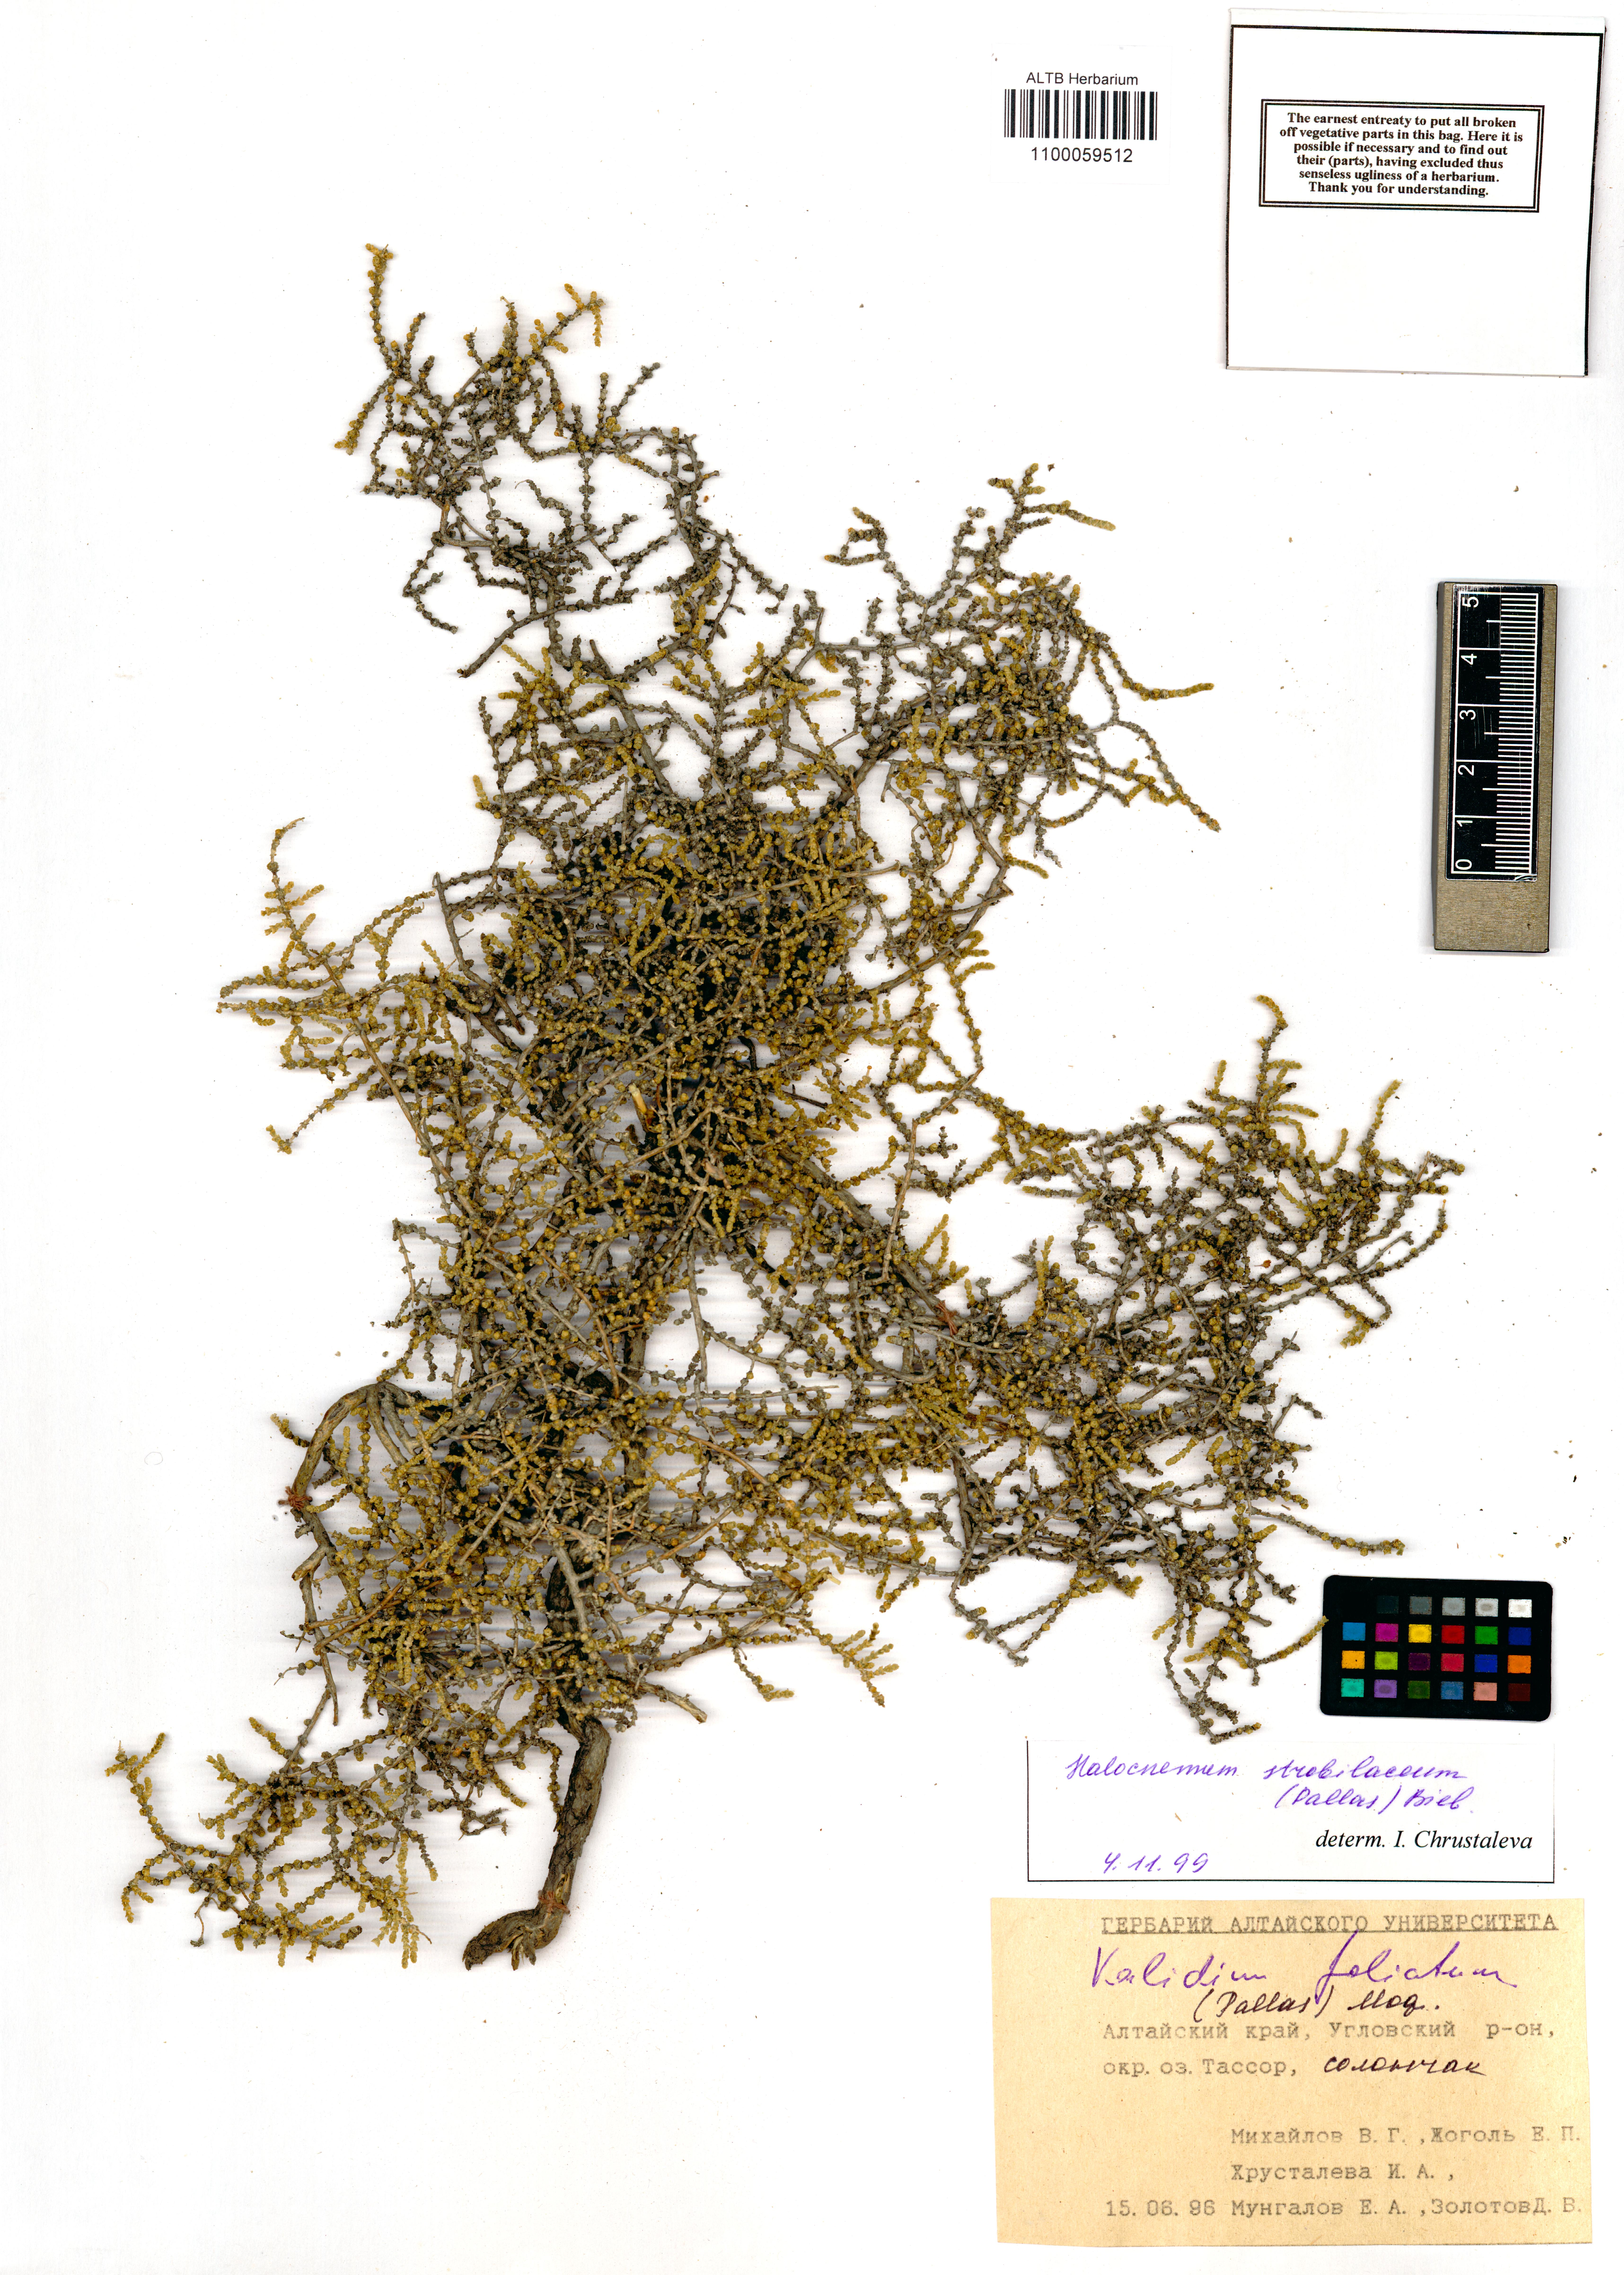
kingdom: Plantae
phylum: Tracheophyta
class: Magnoliopsida
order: Caryophyllales
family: Amaranthaceae
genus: Halocnemum
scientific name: Halocnemum strobilaceum
